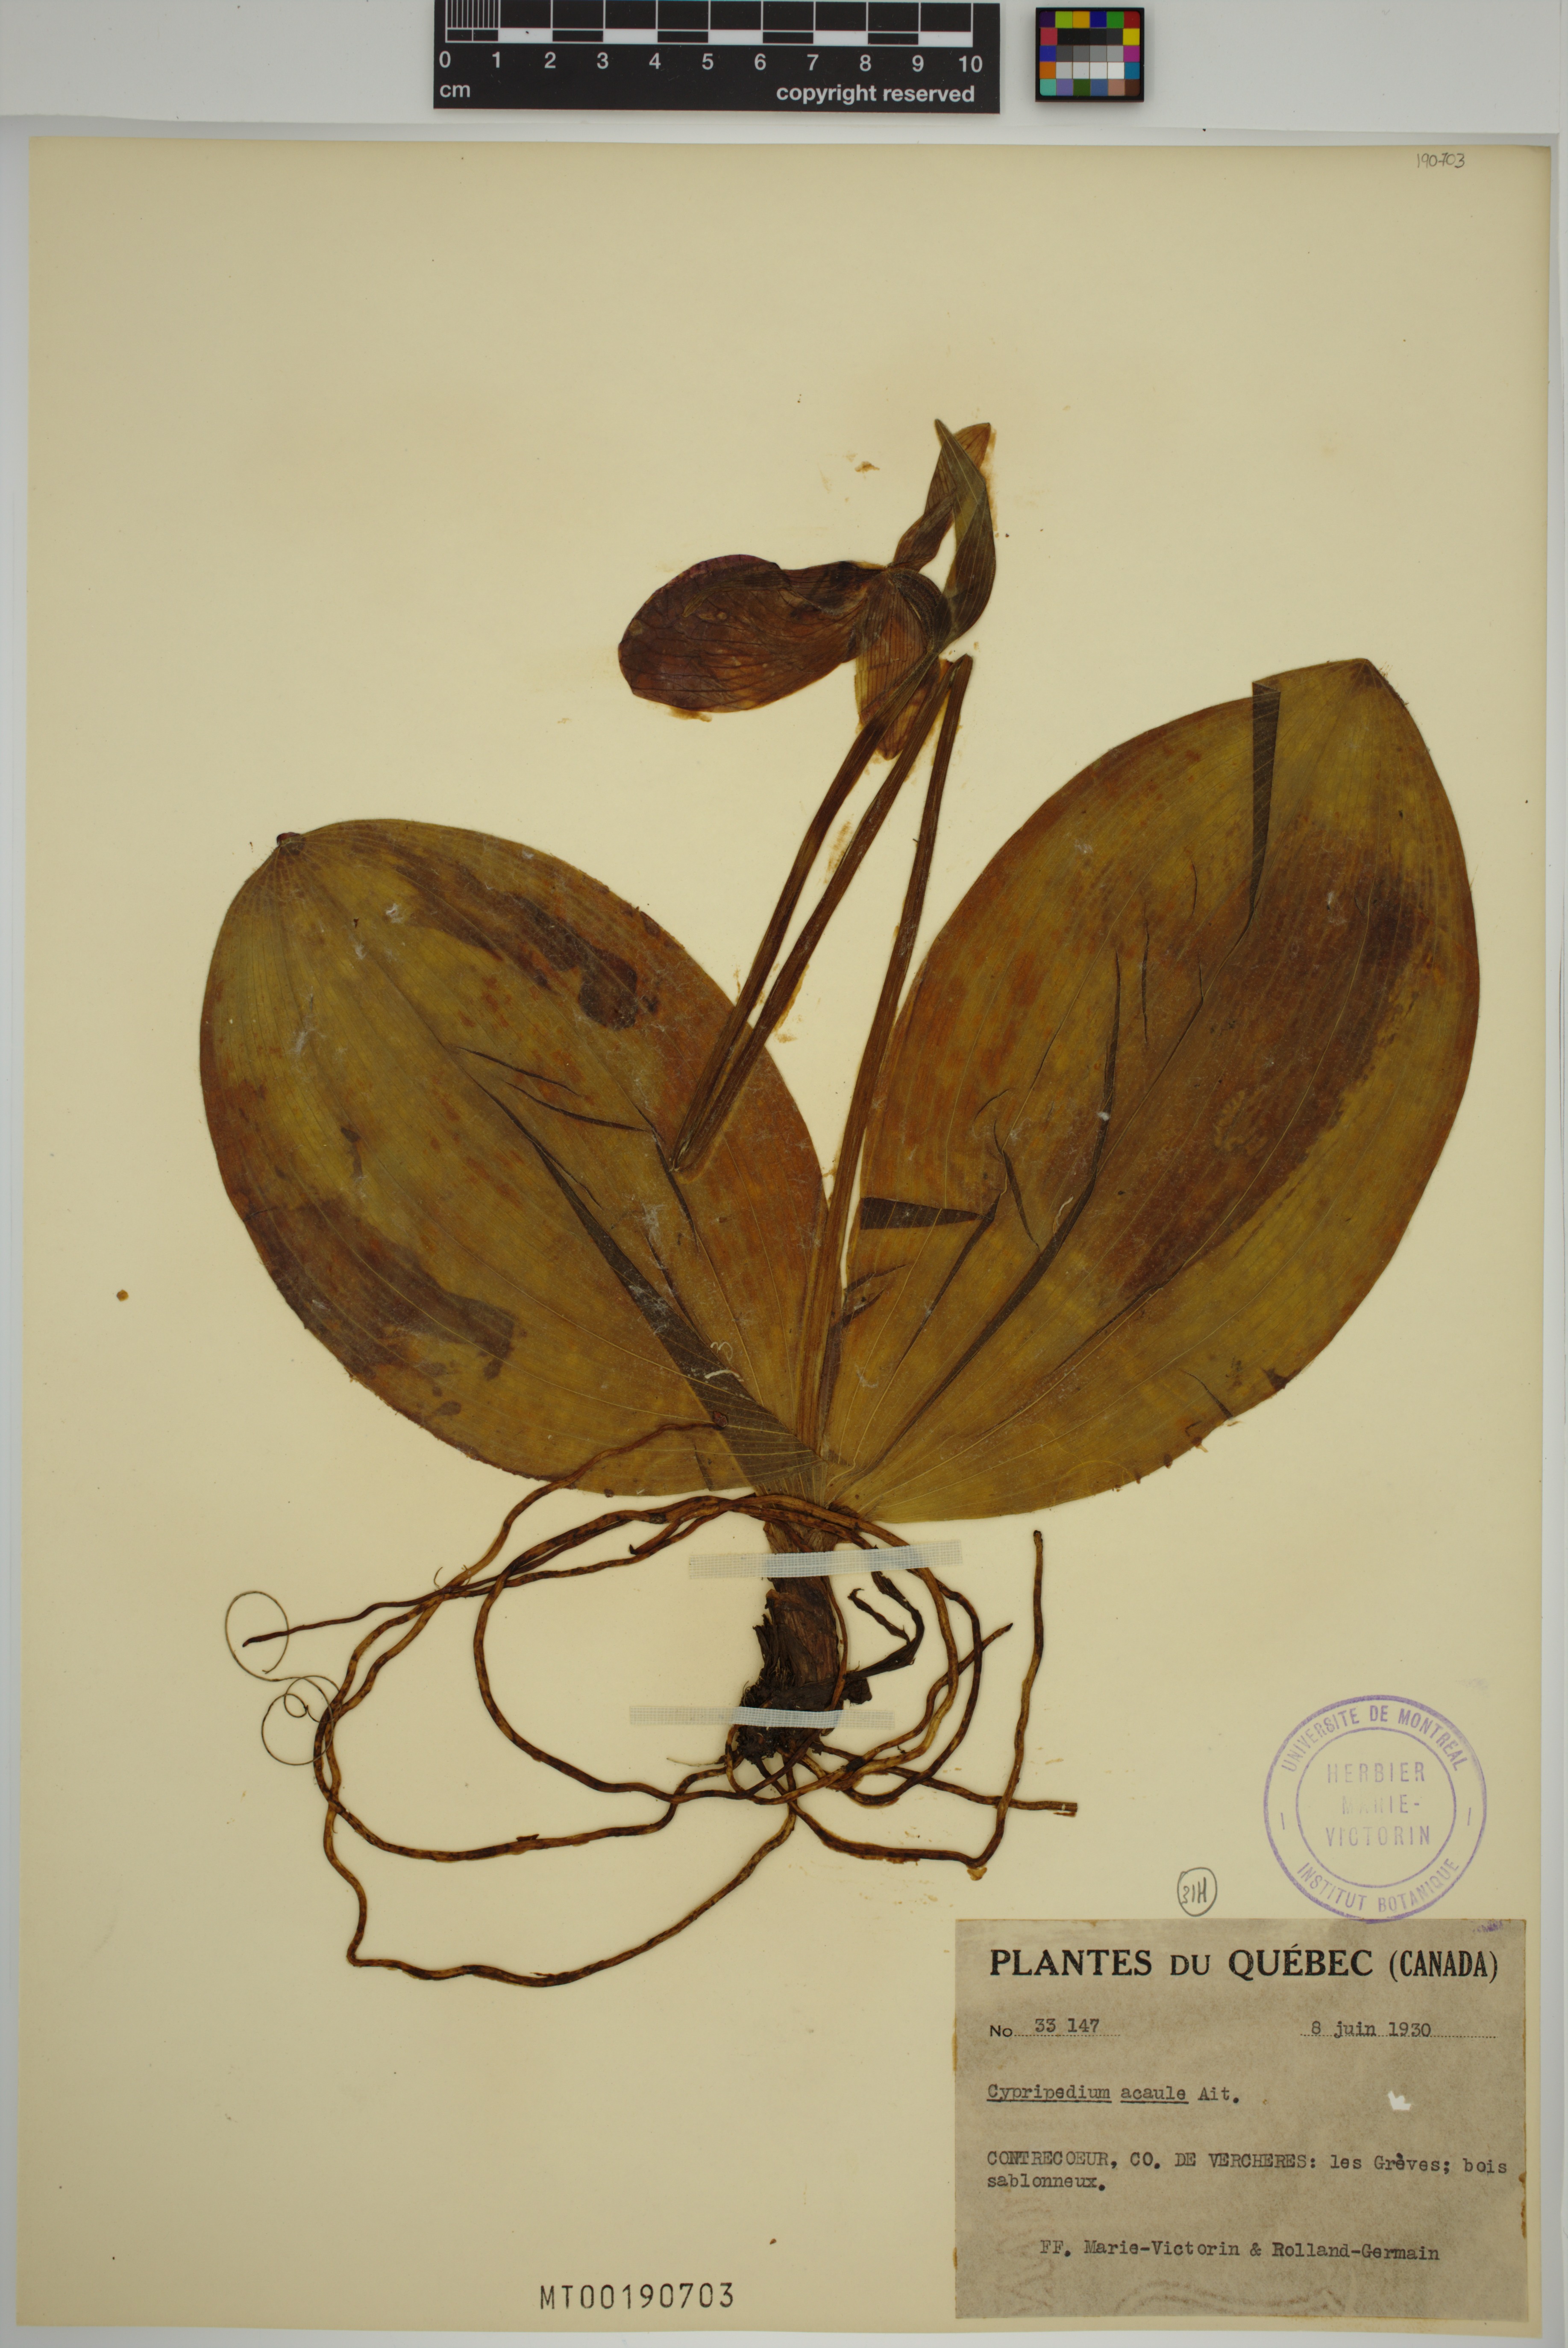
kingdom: Plantae
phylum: Tracheophyta
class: Liliopsida
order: Asparagales
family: Orchidaceae
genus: Cypripedium
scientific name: Cypripedium acaule
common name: Pink lady's-slipper
